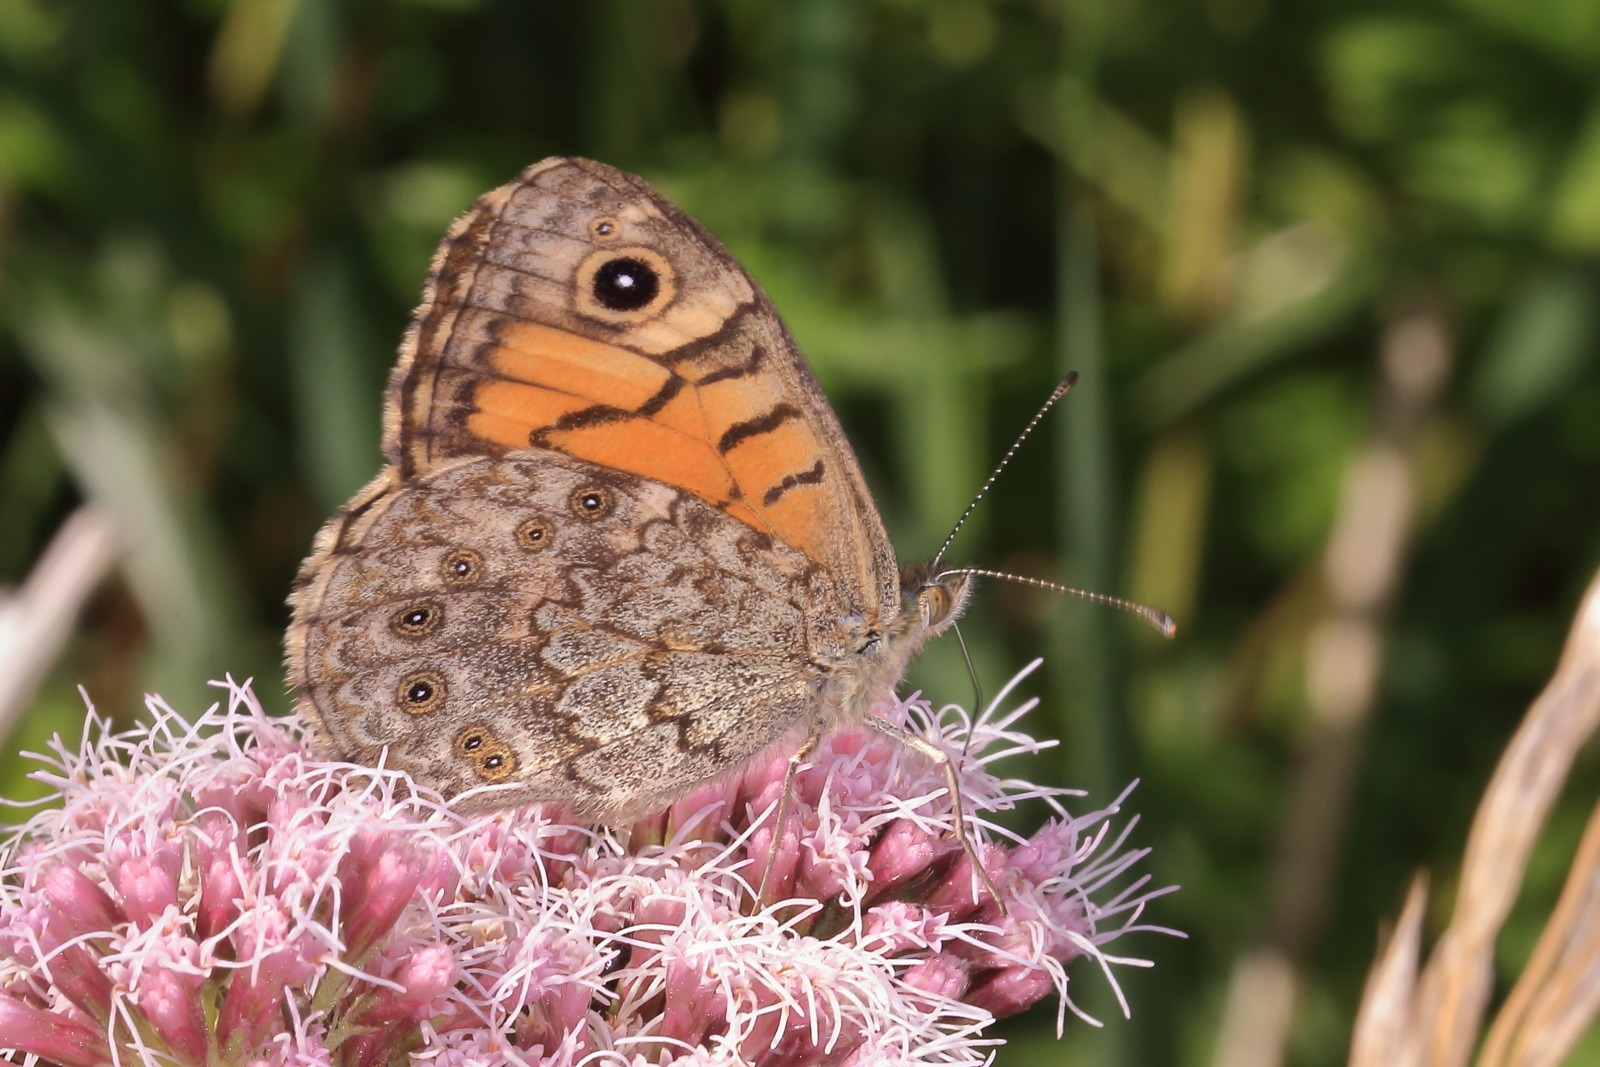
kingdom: Animalia
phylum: Arthropoda
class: Insecta
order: Lepidoptera
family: Nymphalidae
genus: Pararge
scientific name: Pararge Lasiommata megera
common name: Vejrandøje
